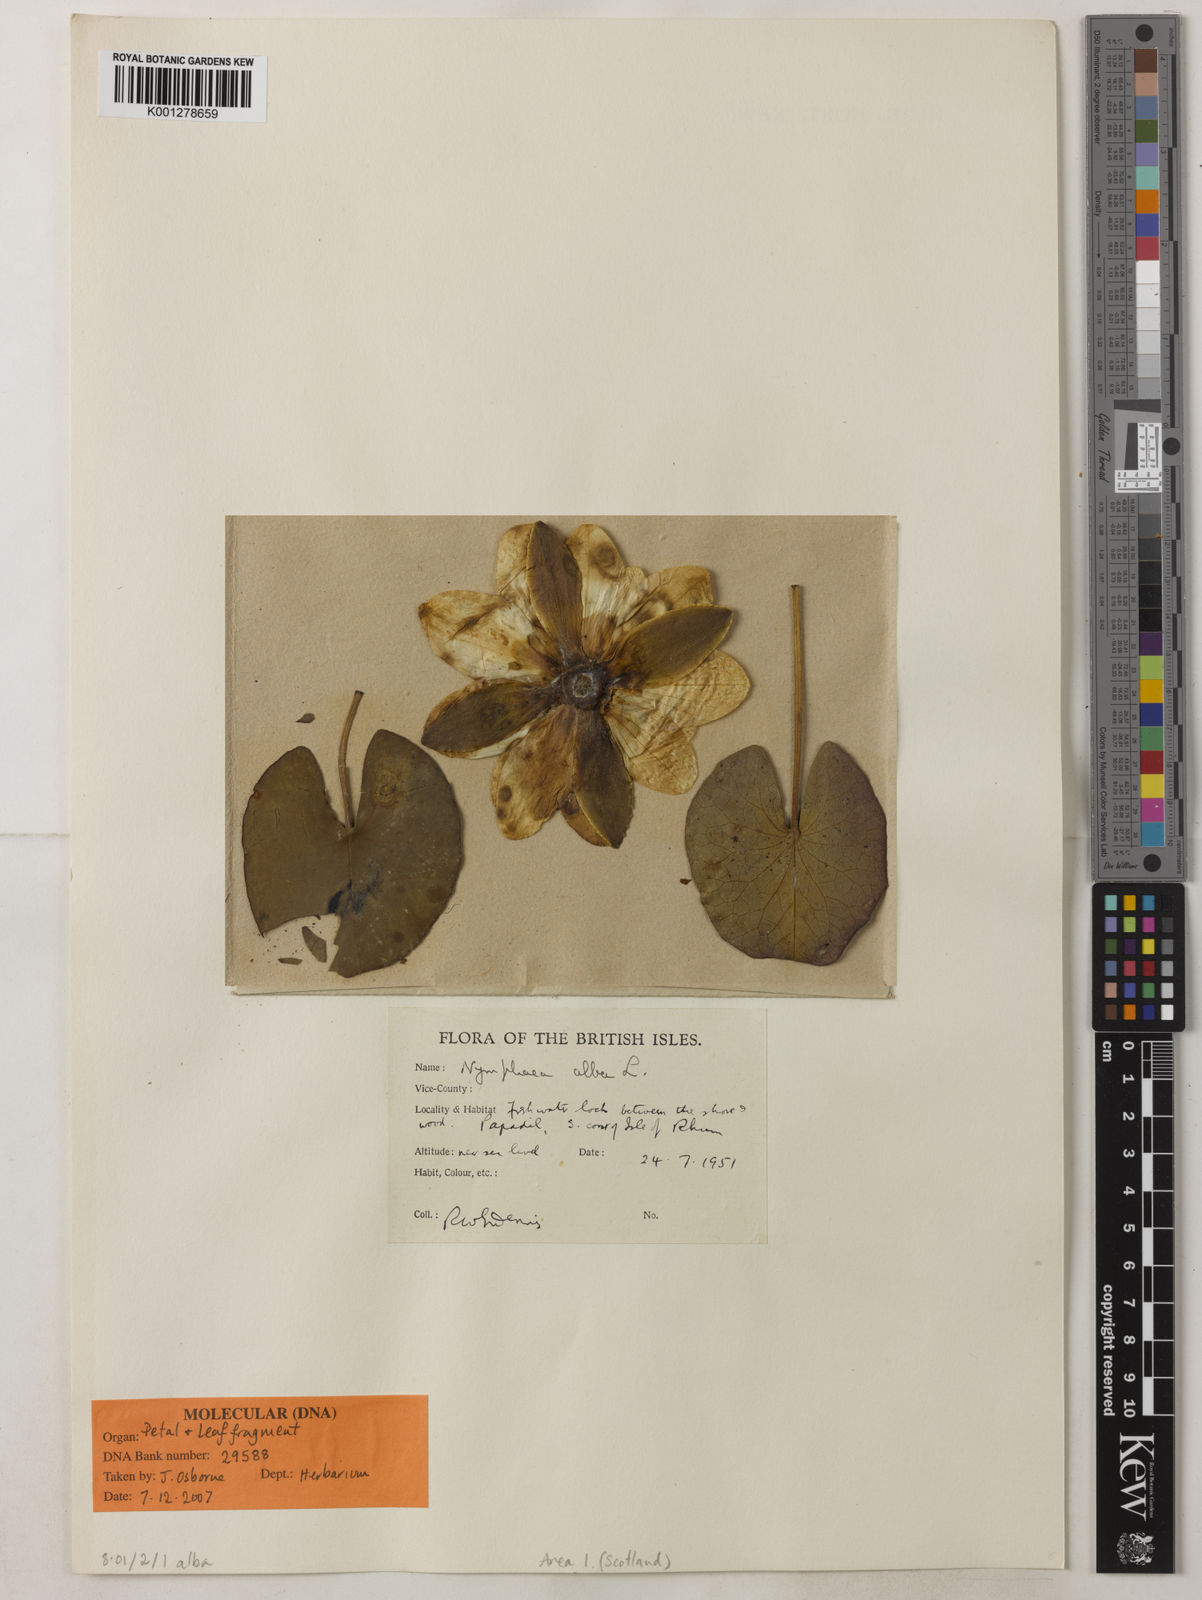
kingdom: Plantae
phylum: Tracheophyta
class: Magnoliopsida
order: Nymphaeales
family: Nymphaeaceae
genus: Nymphaea
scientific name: Nymphaea alba
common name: White water-lily
